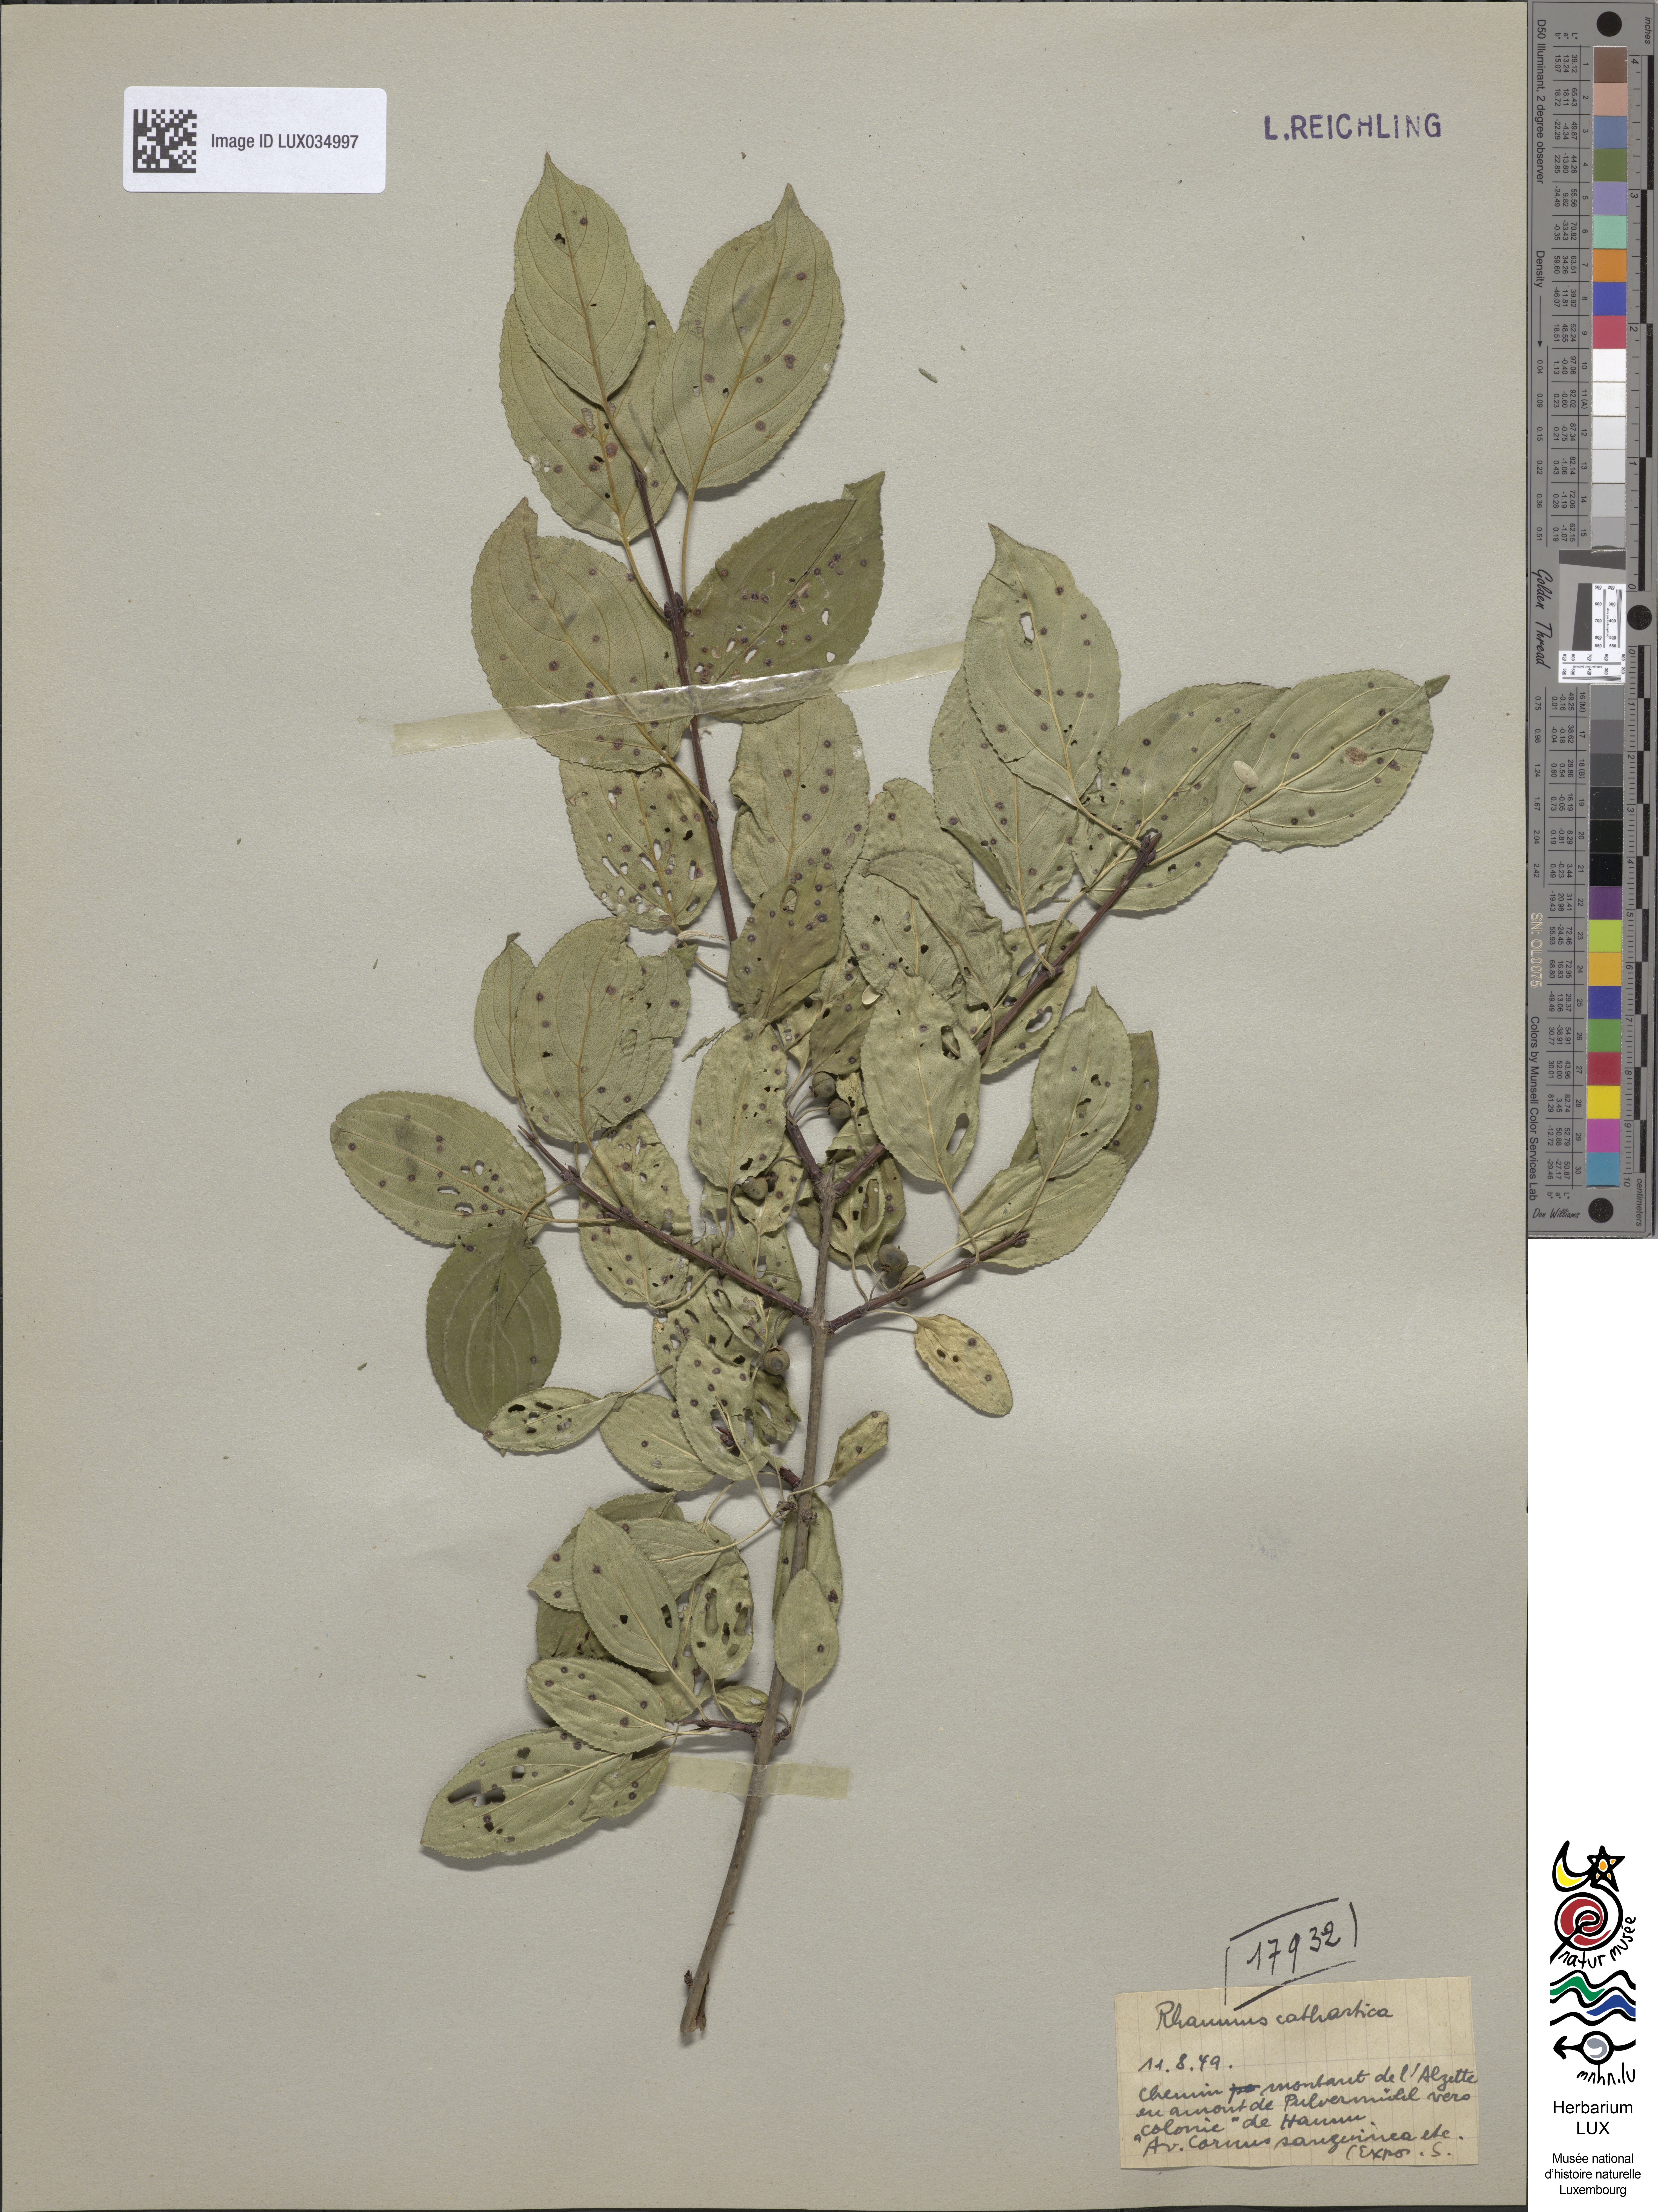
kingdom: Plantae
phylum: Tracheophyta
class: Magnoliopsida
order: Rosales
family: Rhamnaceae
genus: Rhamnus
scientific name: Rhamnus cathartica
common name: Common buckthorn
